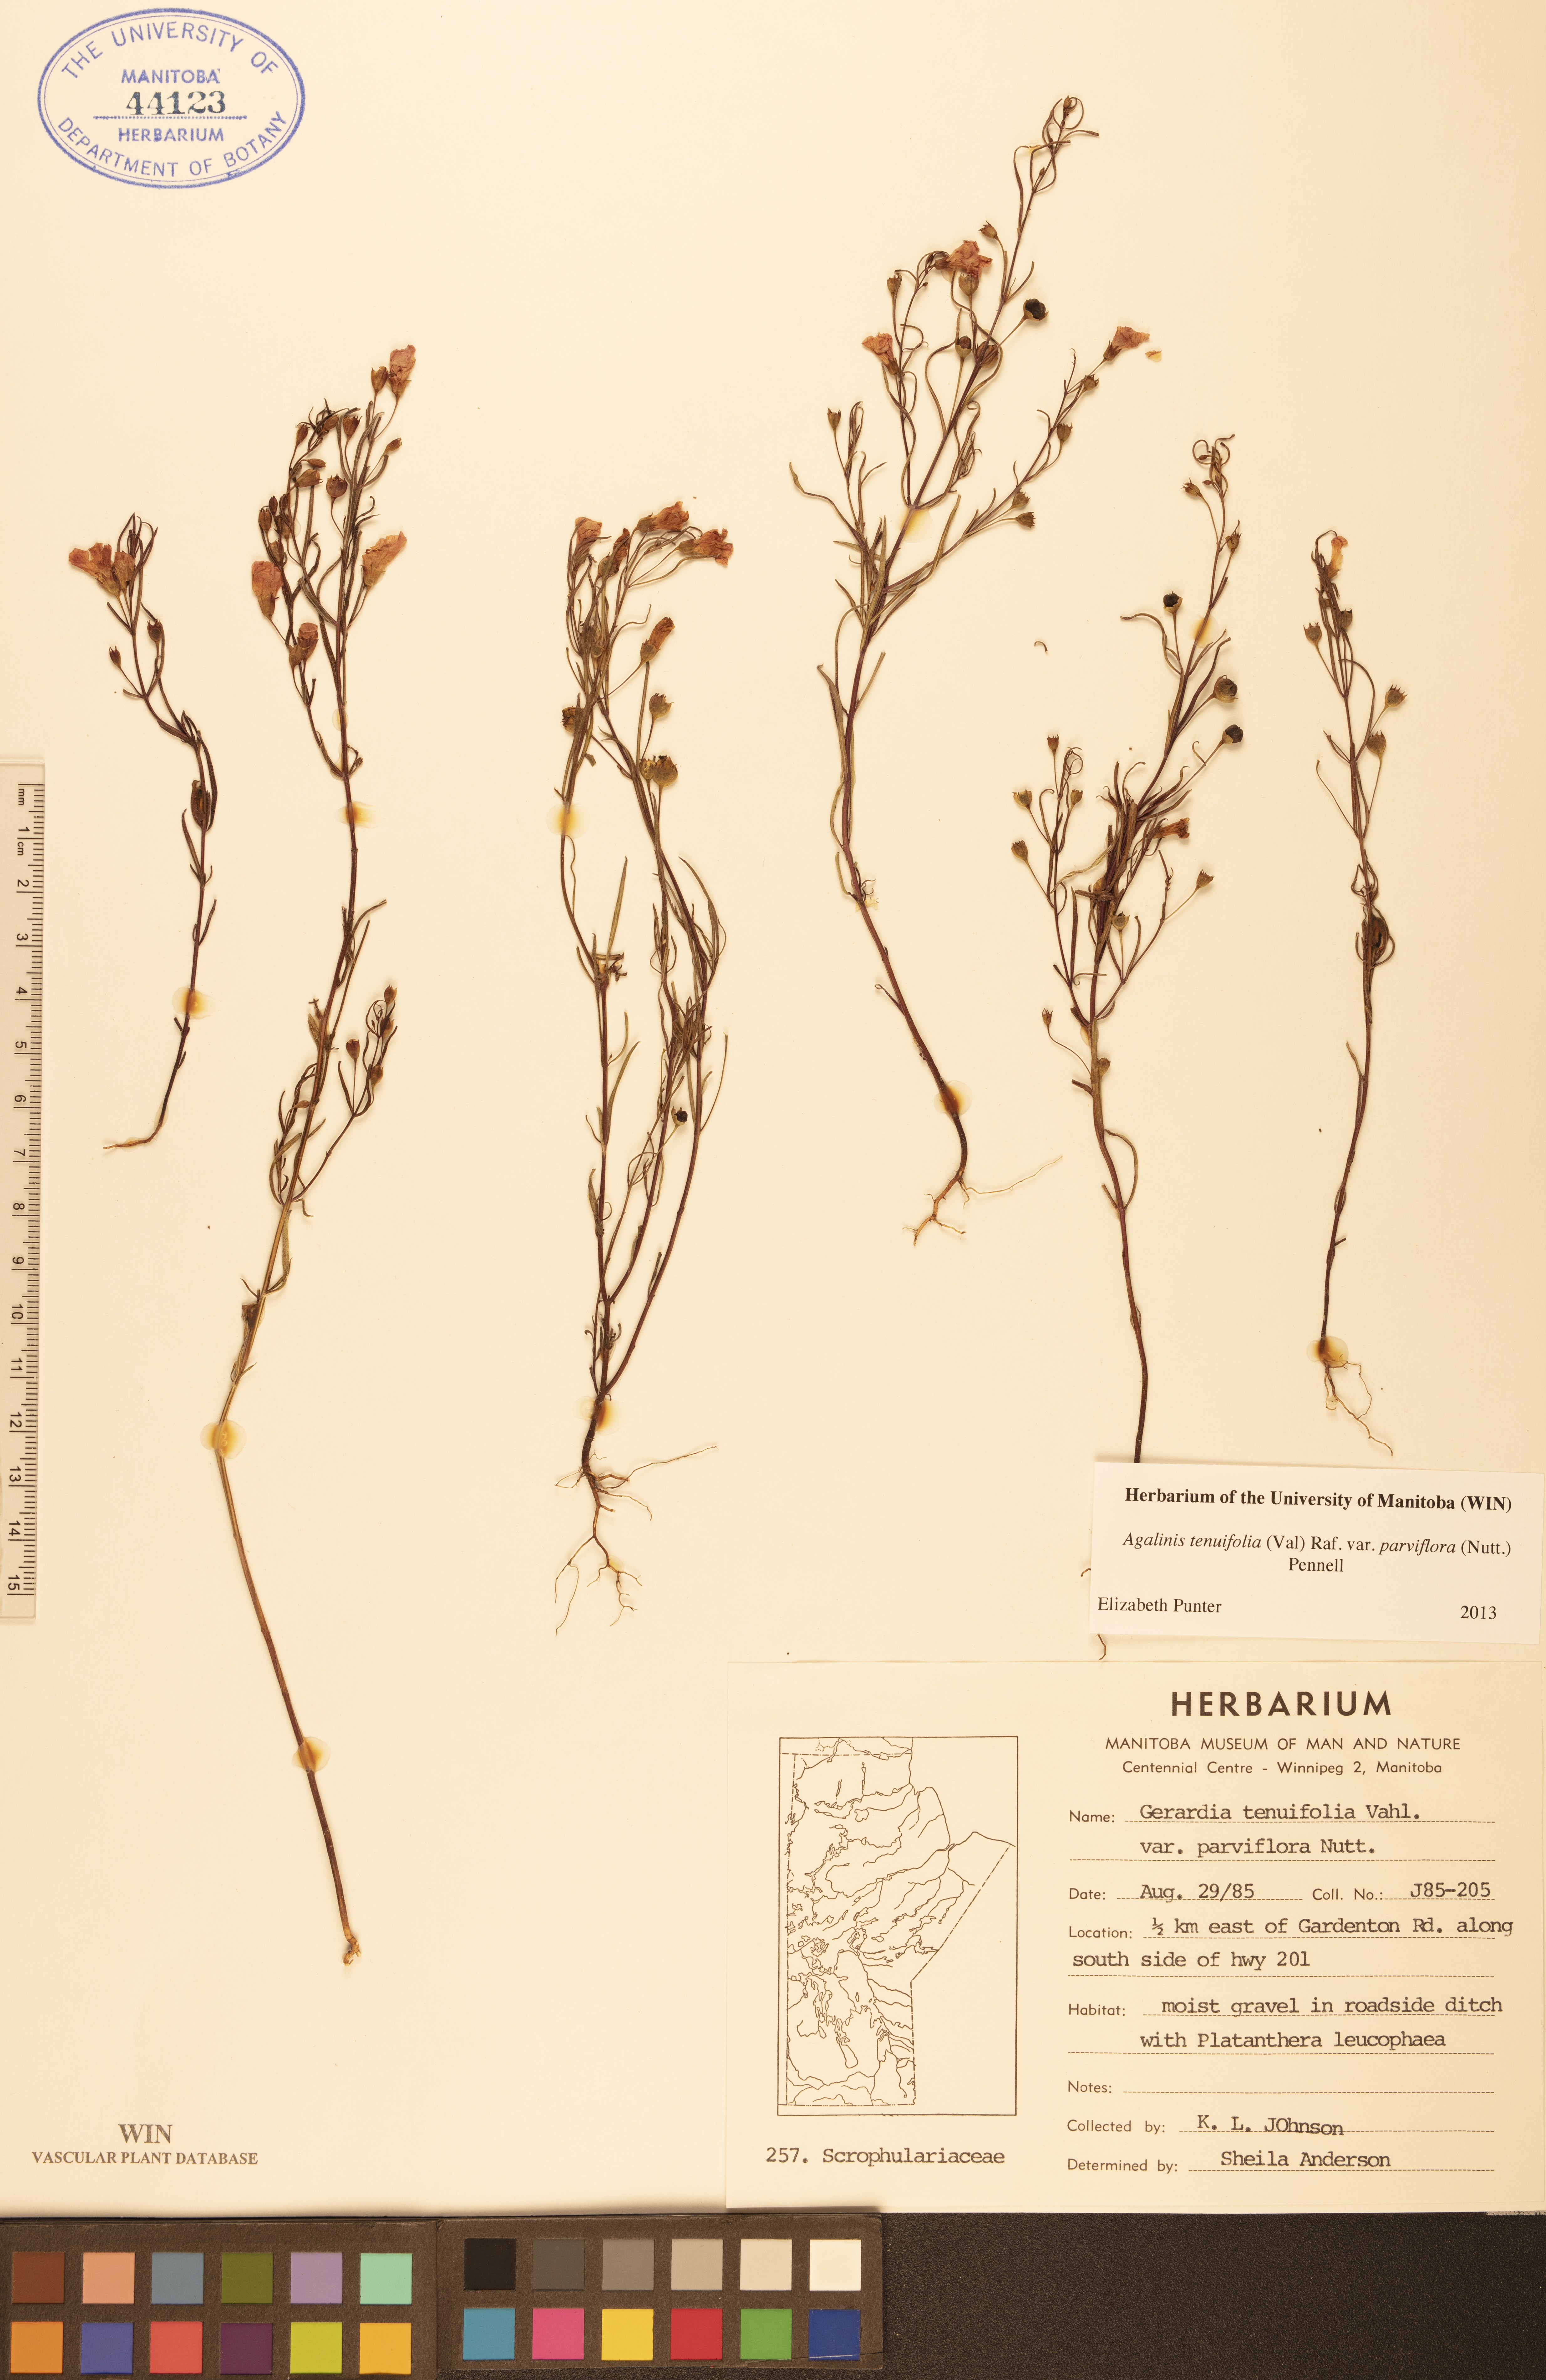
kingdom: Plantae
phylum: Tracheophyta
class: Magnoliopsida
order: Lamiales
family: Orobanchaceae
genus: Agalinis
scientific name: Agalinis tenuifolia
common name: Slender agalinis
